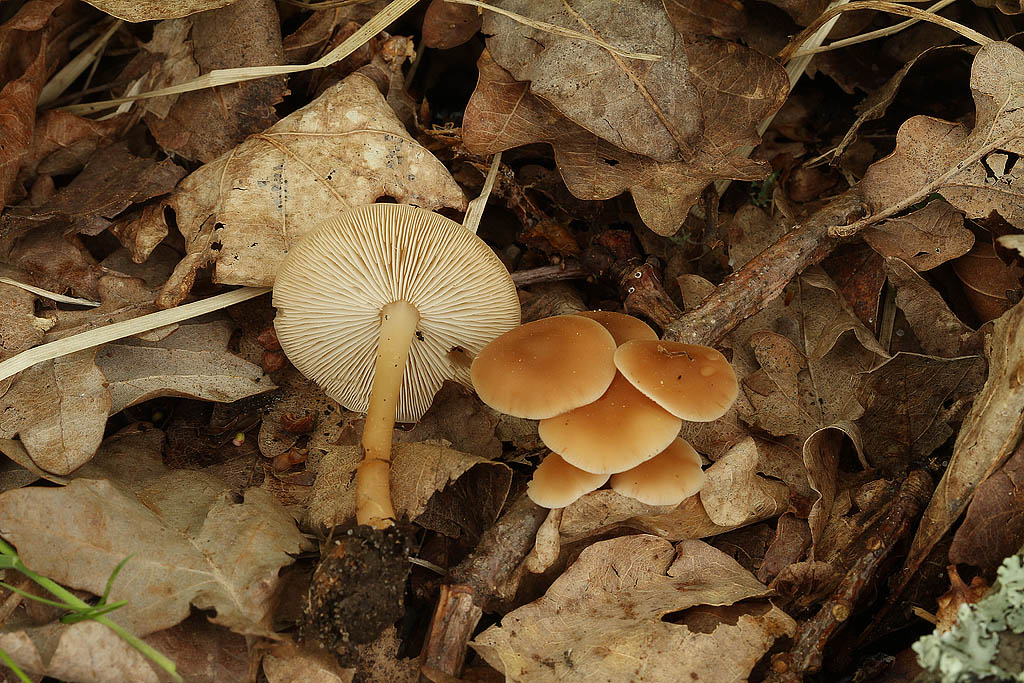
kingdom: Fungi
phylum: Basidiomycota
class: Agaricomycetes
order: Agaricales
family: Omphalotaceae
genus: Gymnopus
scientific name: Gymnopus aquosus
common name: bleg fladhat
